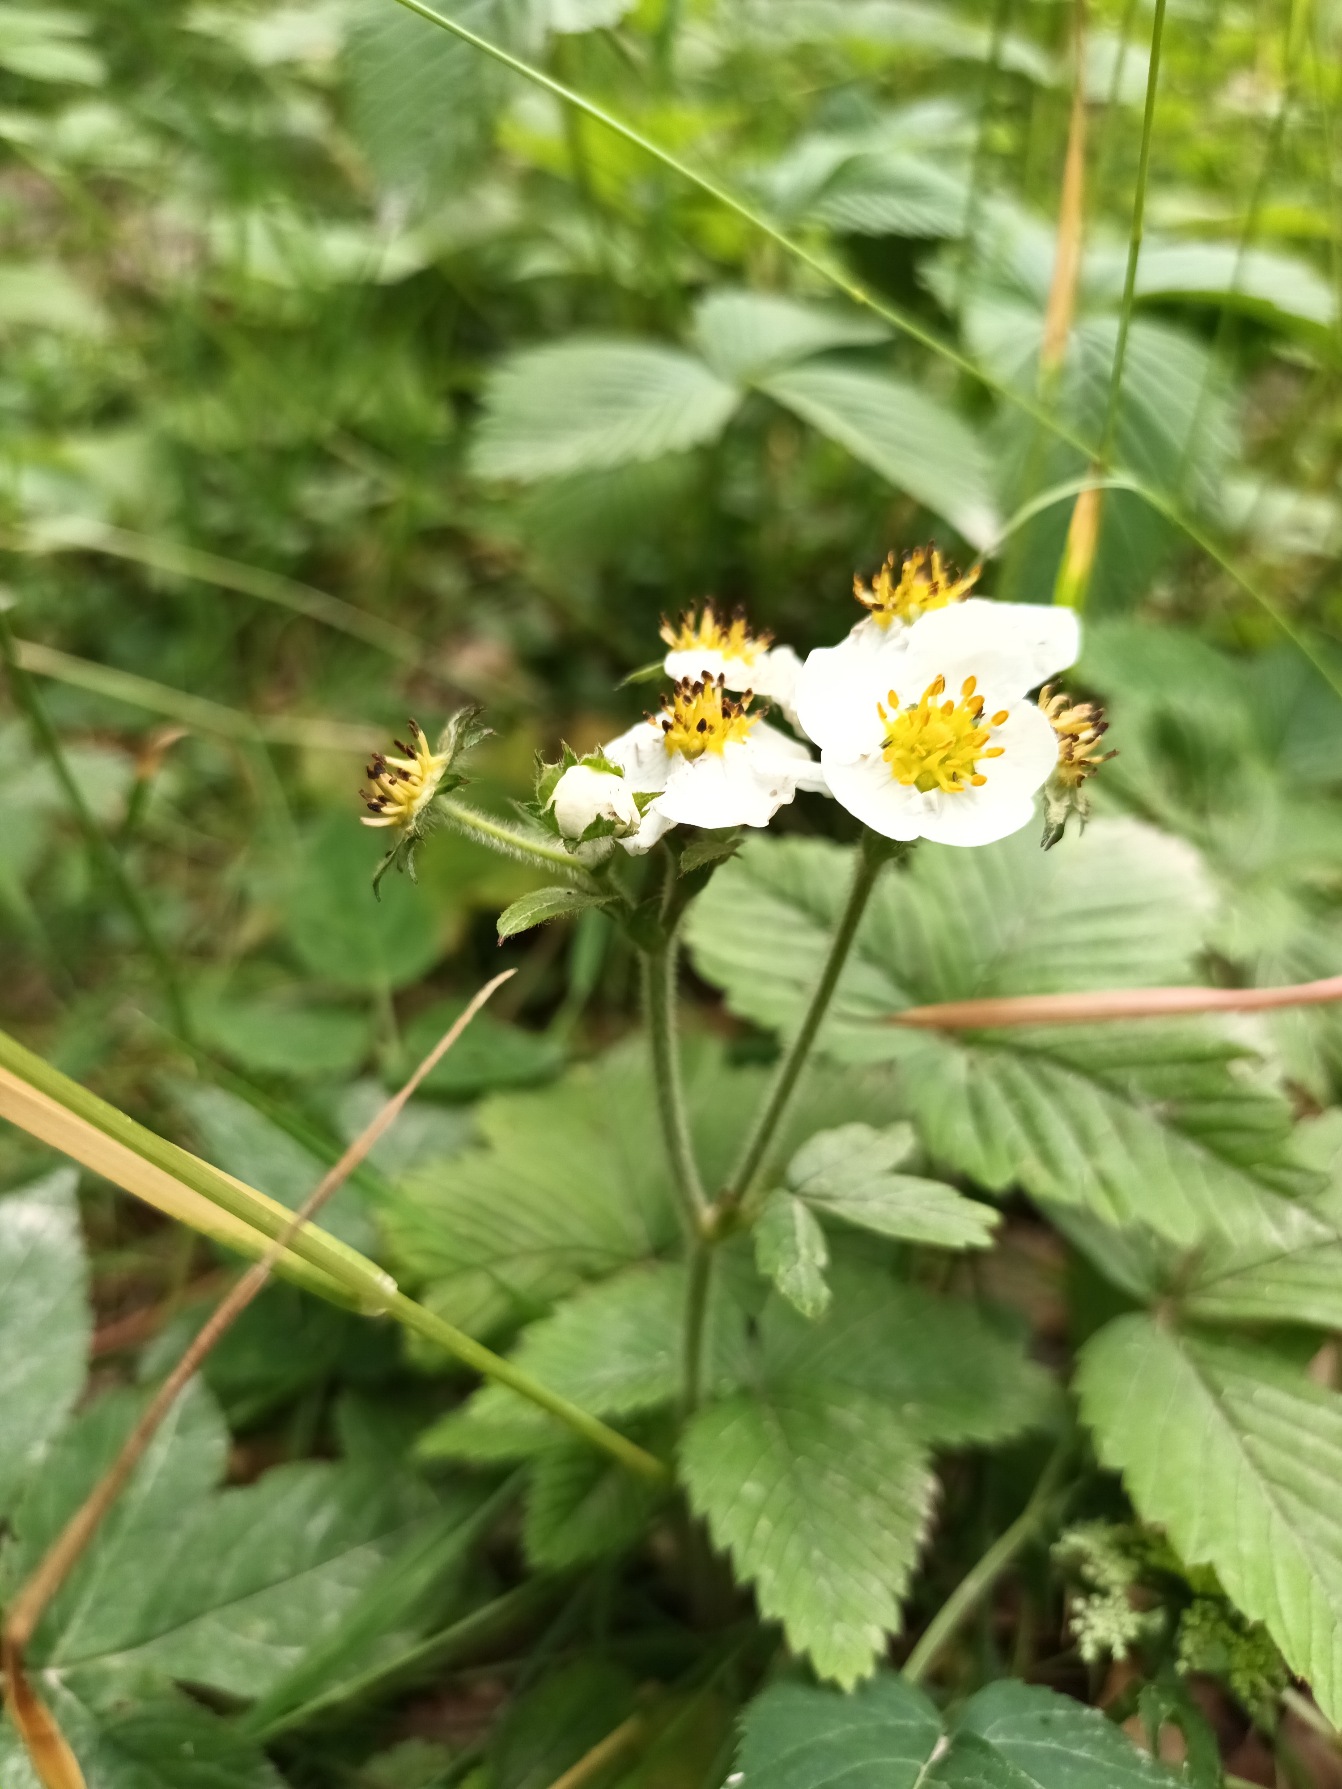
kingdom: Plantae
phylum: Tracheophyta
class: Magnoliopsida
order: Rosales
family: Rosaceae
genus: Fragaria
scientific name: Fragaria moschata
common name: Spansk jordbær
